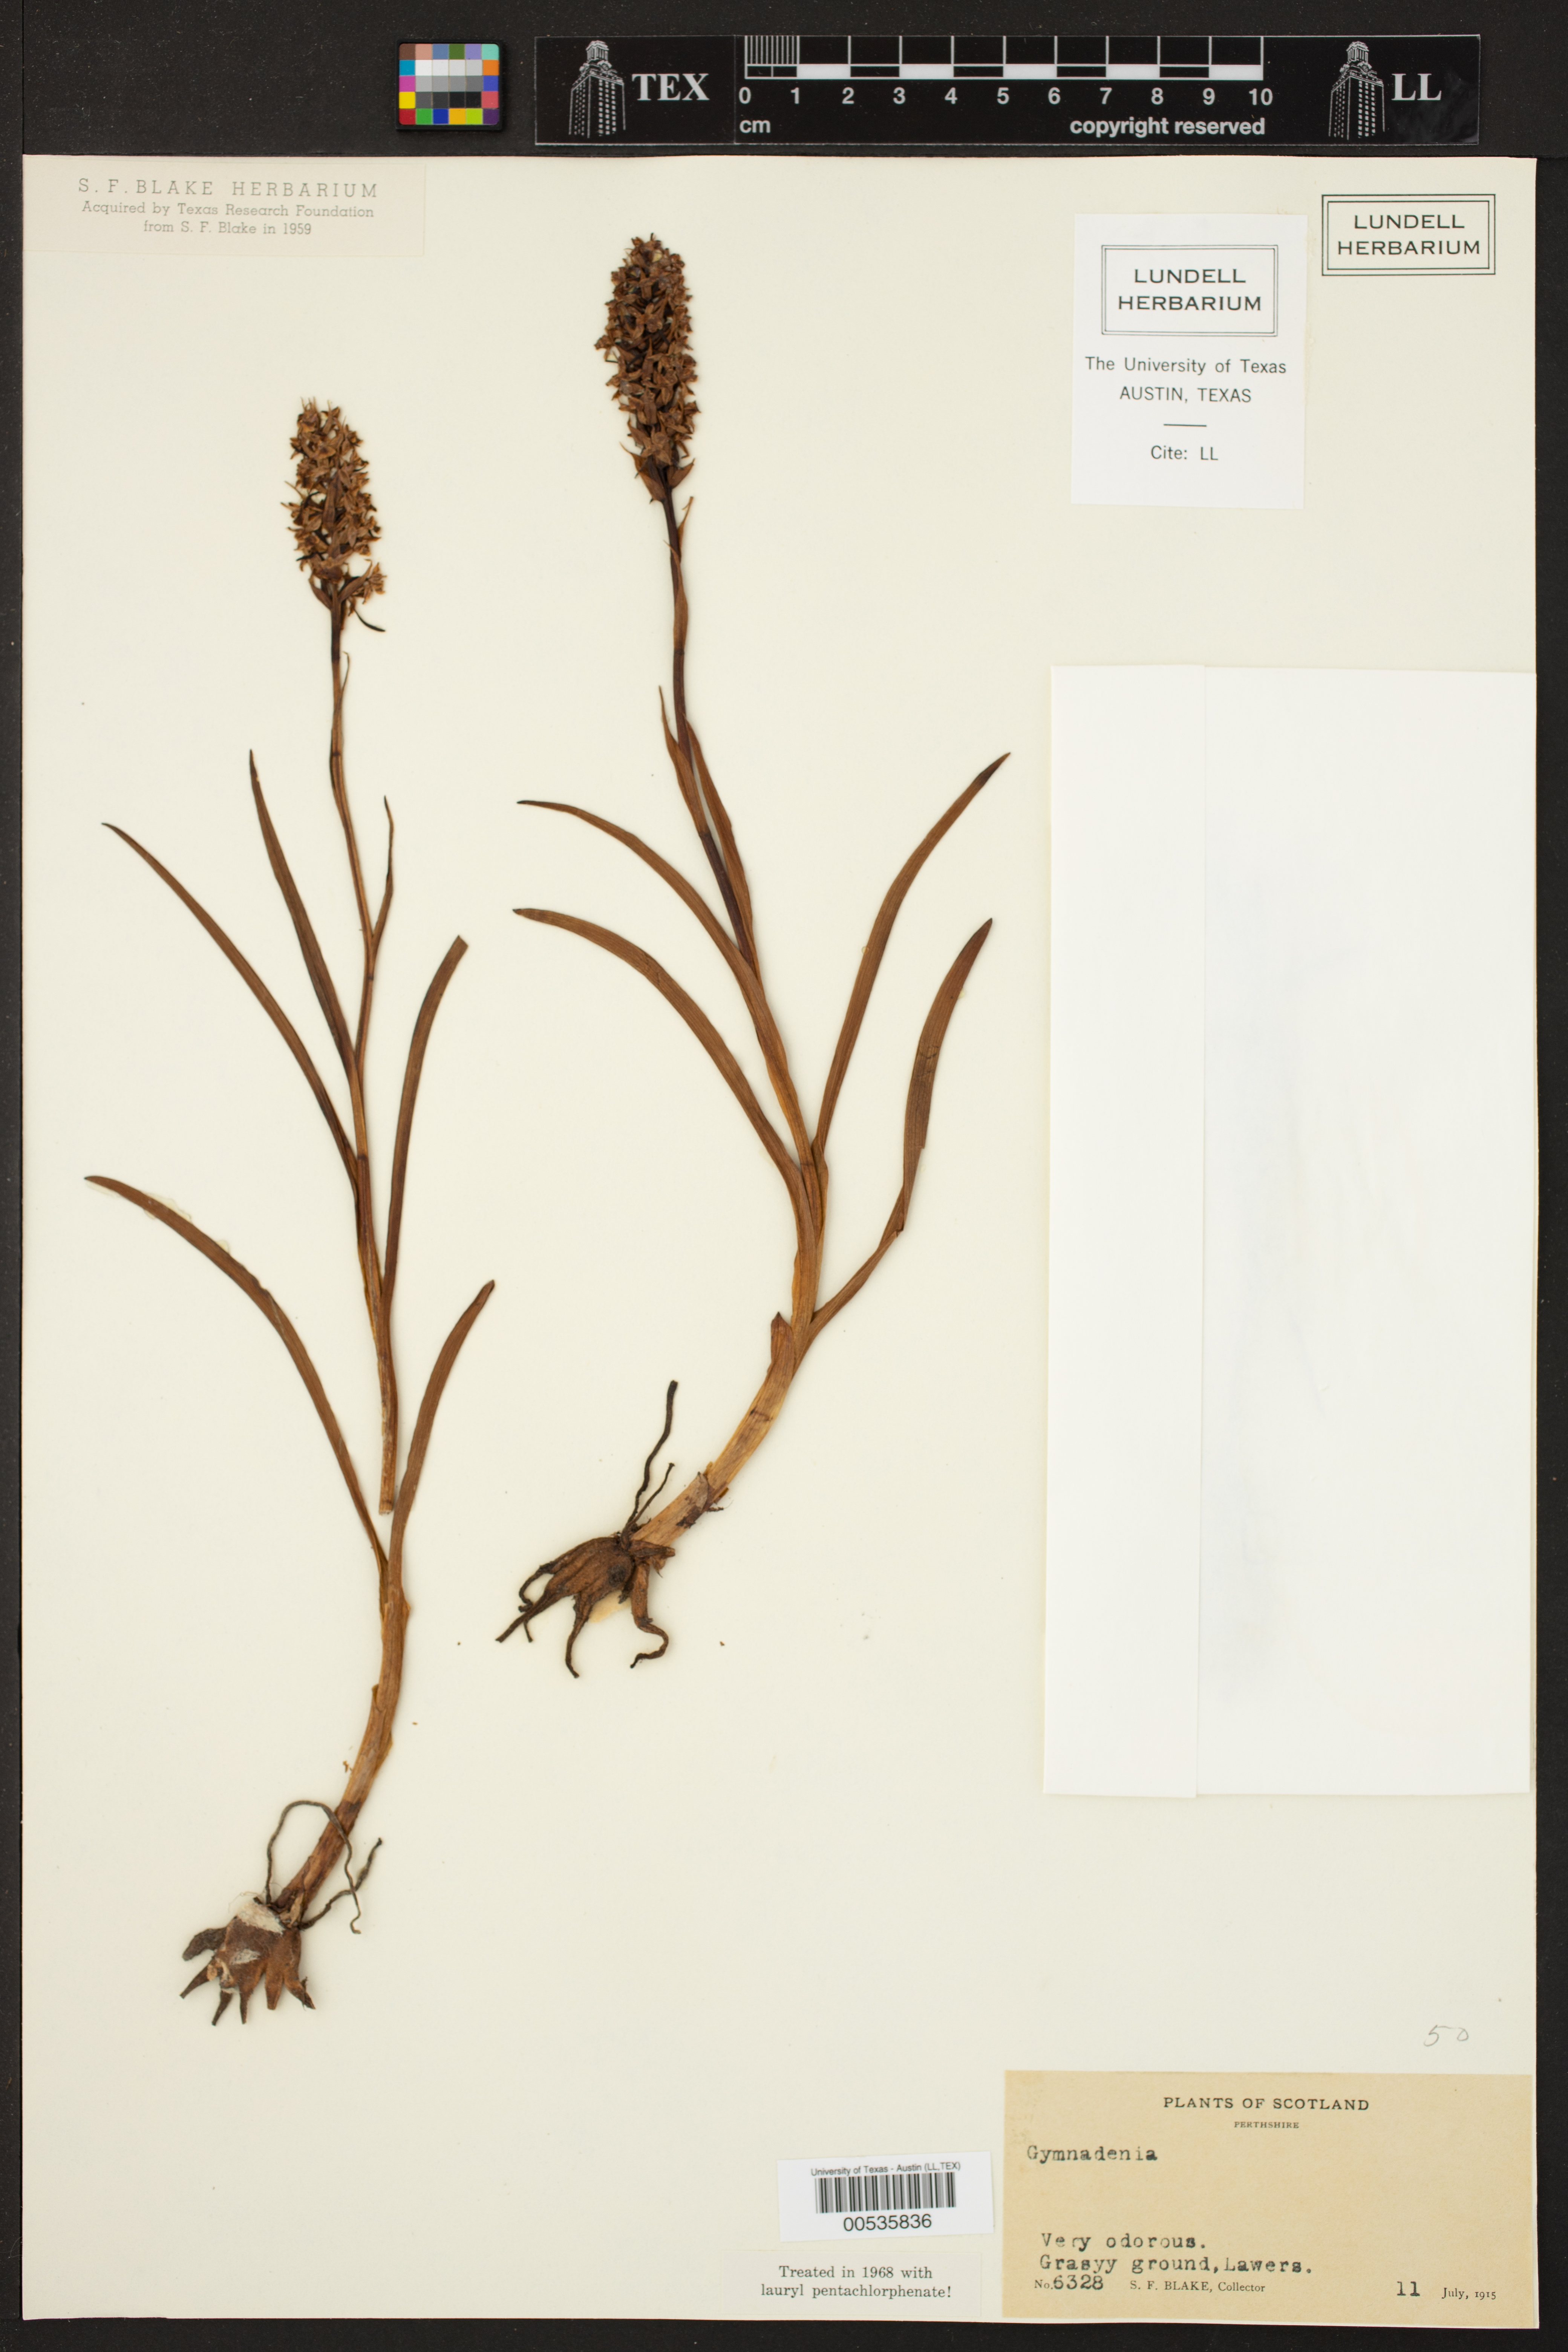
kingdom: Plantae
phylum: Tracheophyta
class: Liliopsida
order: Asparagales
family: Orchidaceae
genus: Gymnadenia
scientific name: Gymnadenia
